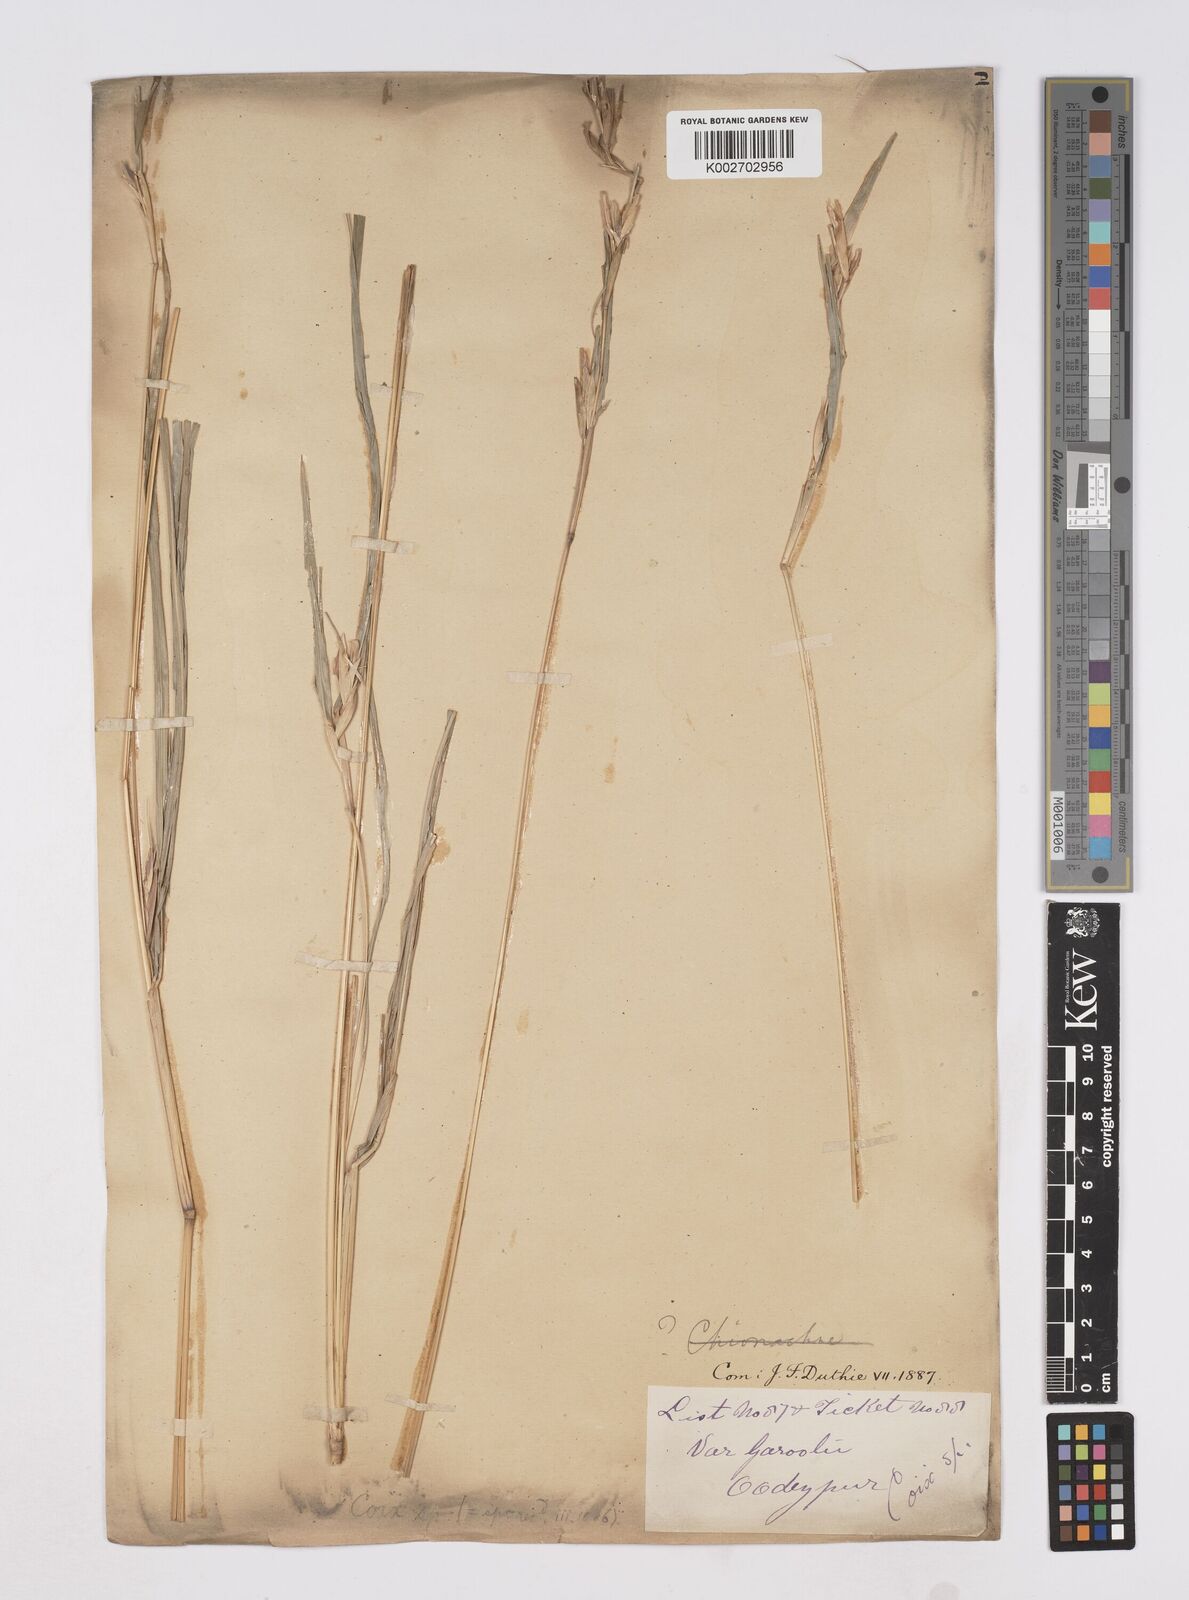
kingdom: Plantae
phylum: Tracheophyta
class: Liliopsida
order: Poales
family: Poaceae
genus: Polytoca
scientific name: Polytoca gigantea
